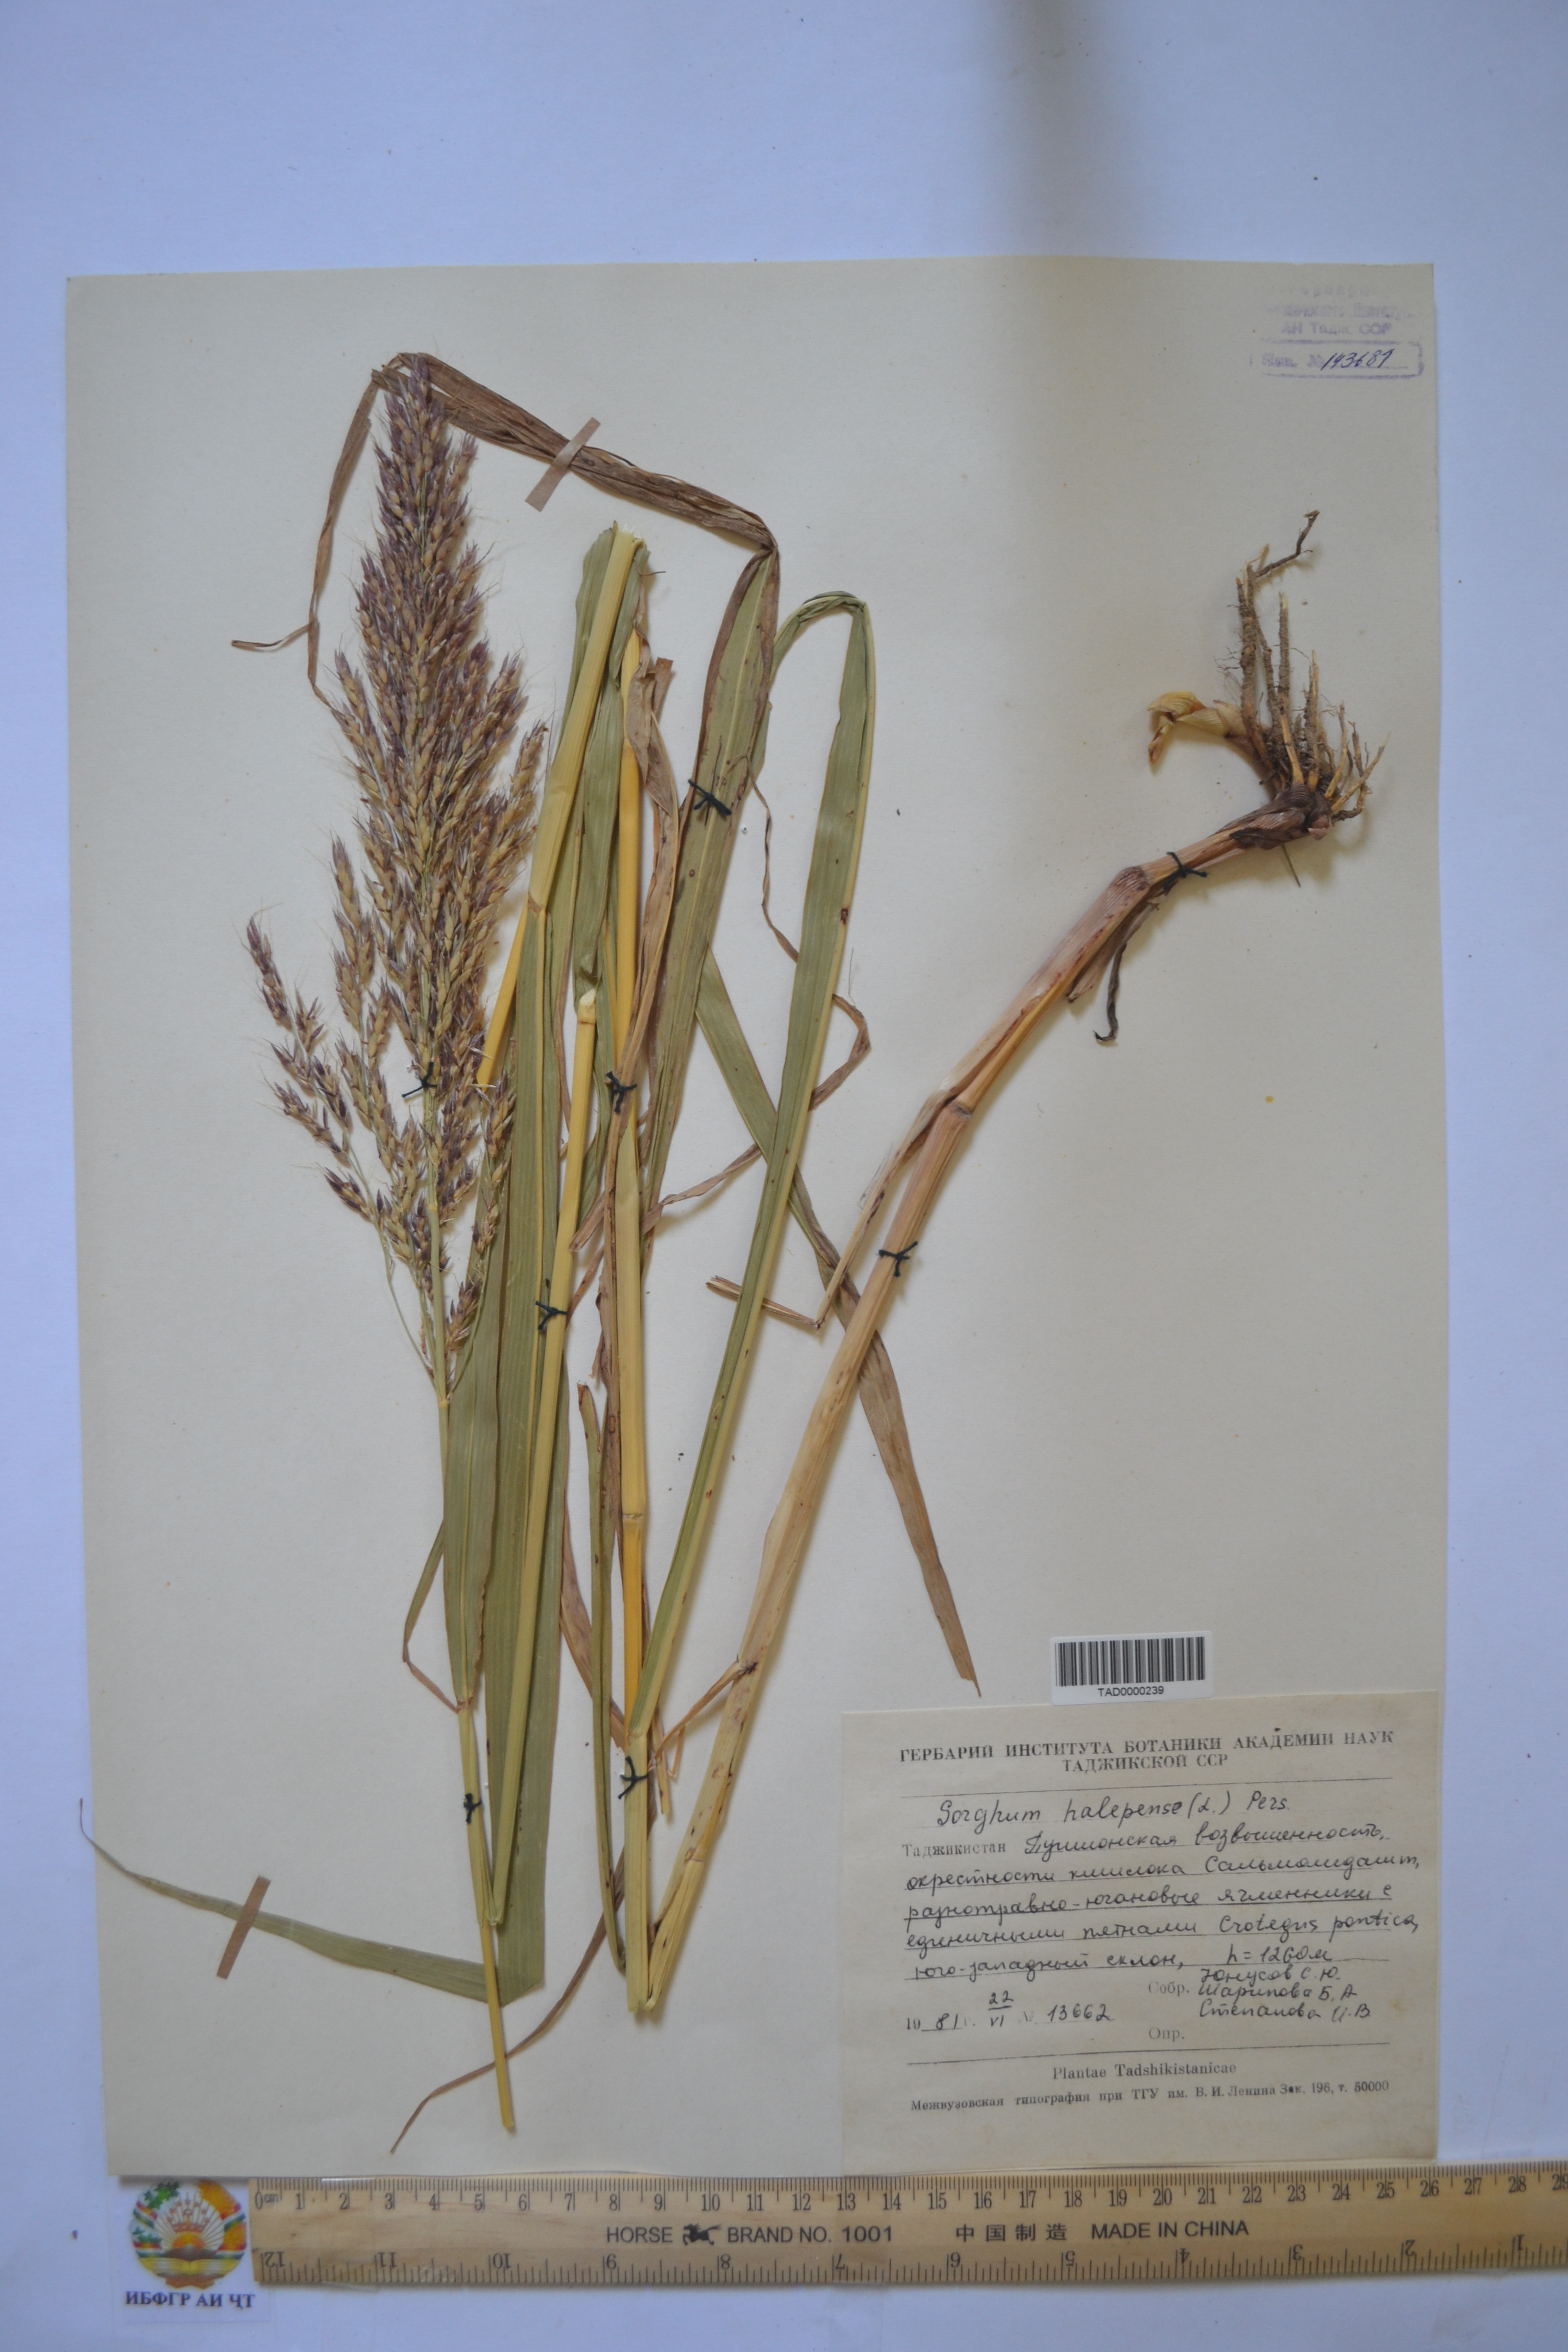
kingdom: Plantae
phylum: Tracheophyta
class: Liliopsida
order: Poales
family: Poaceae
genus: Sorghum
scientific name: Sorghum halepense
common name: Johnson-grass
